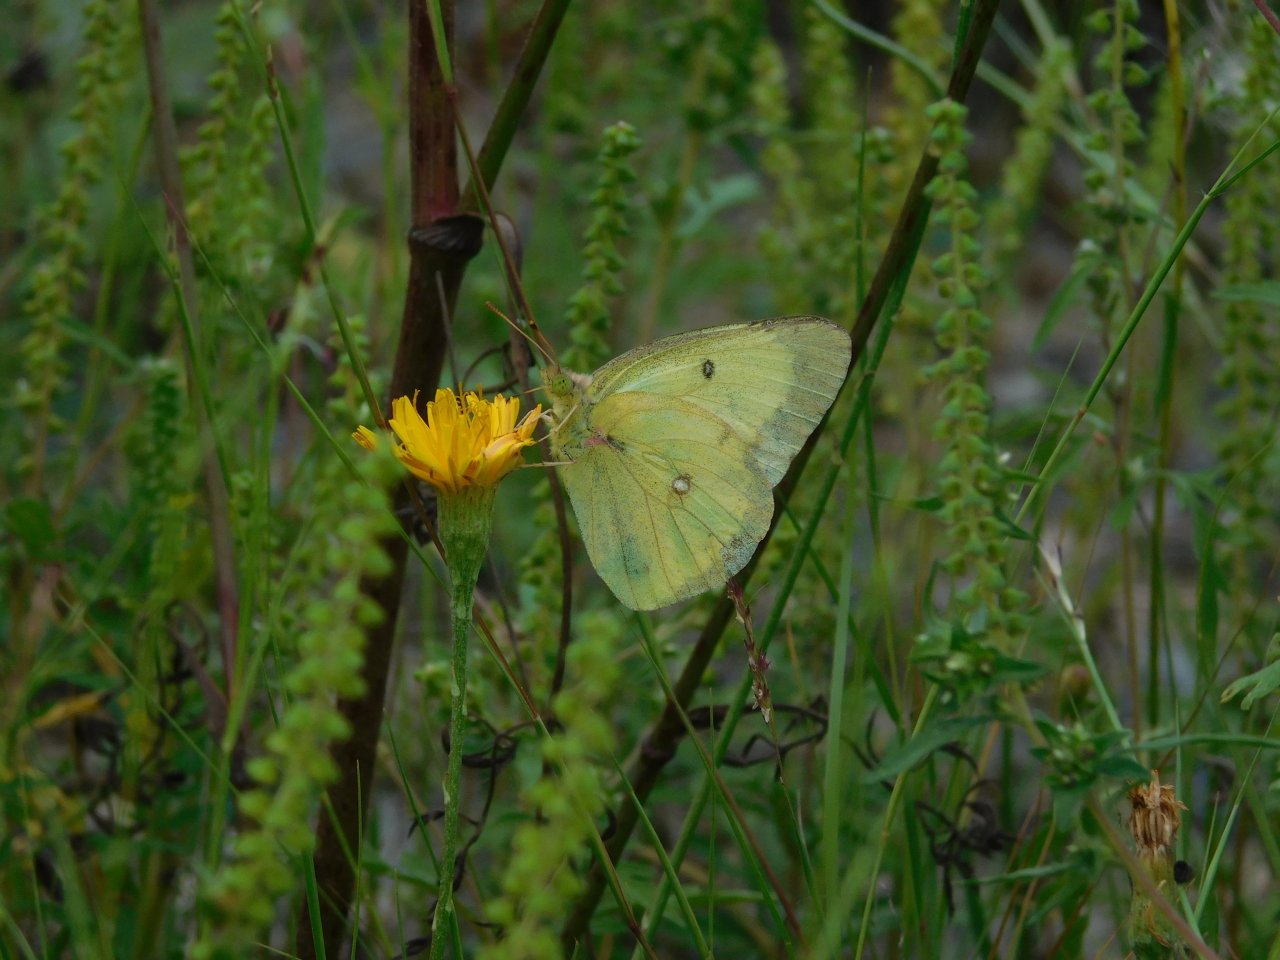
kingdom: Animalia
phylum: Arthropoda
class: Insecta
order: Lepidoptera
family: Pieridae
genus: Colias
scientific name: Colias philodice
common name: Clouded Sulphur
